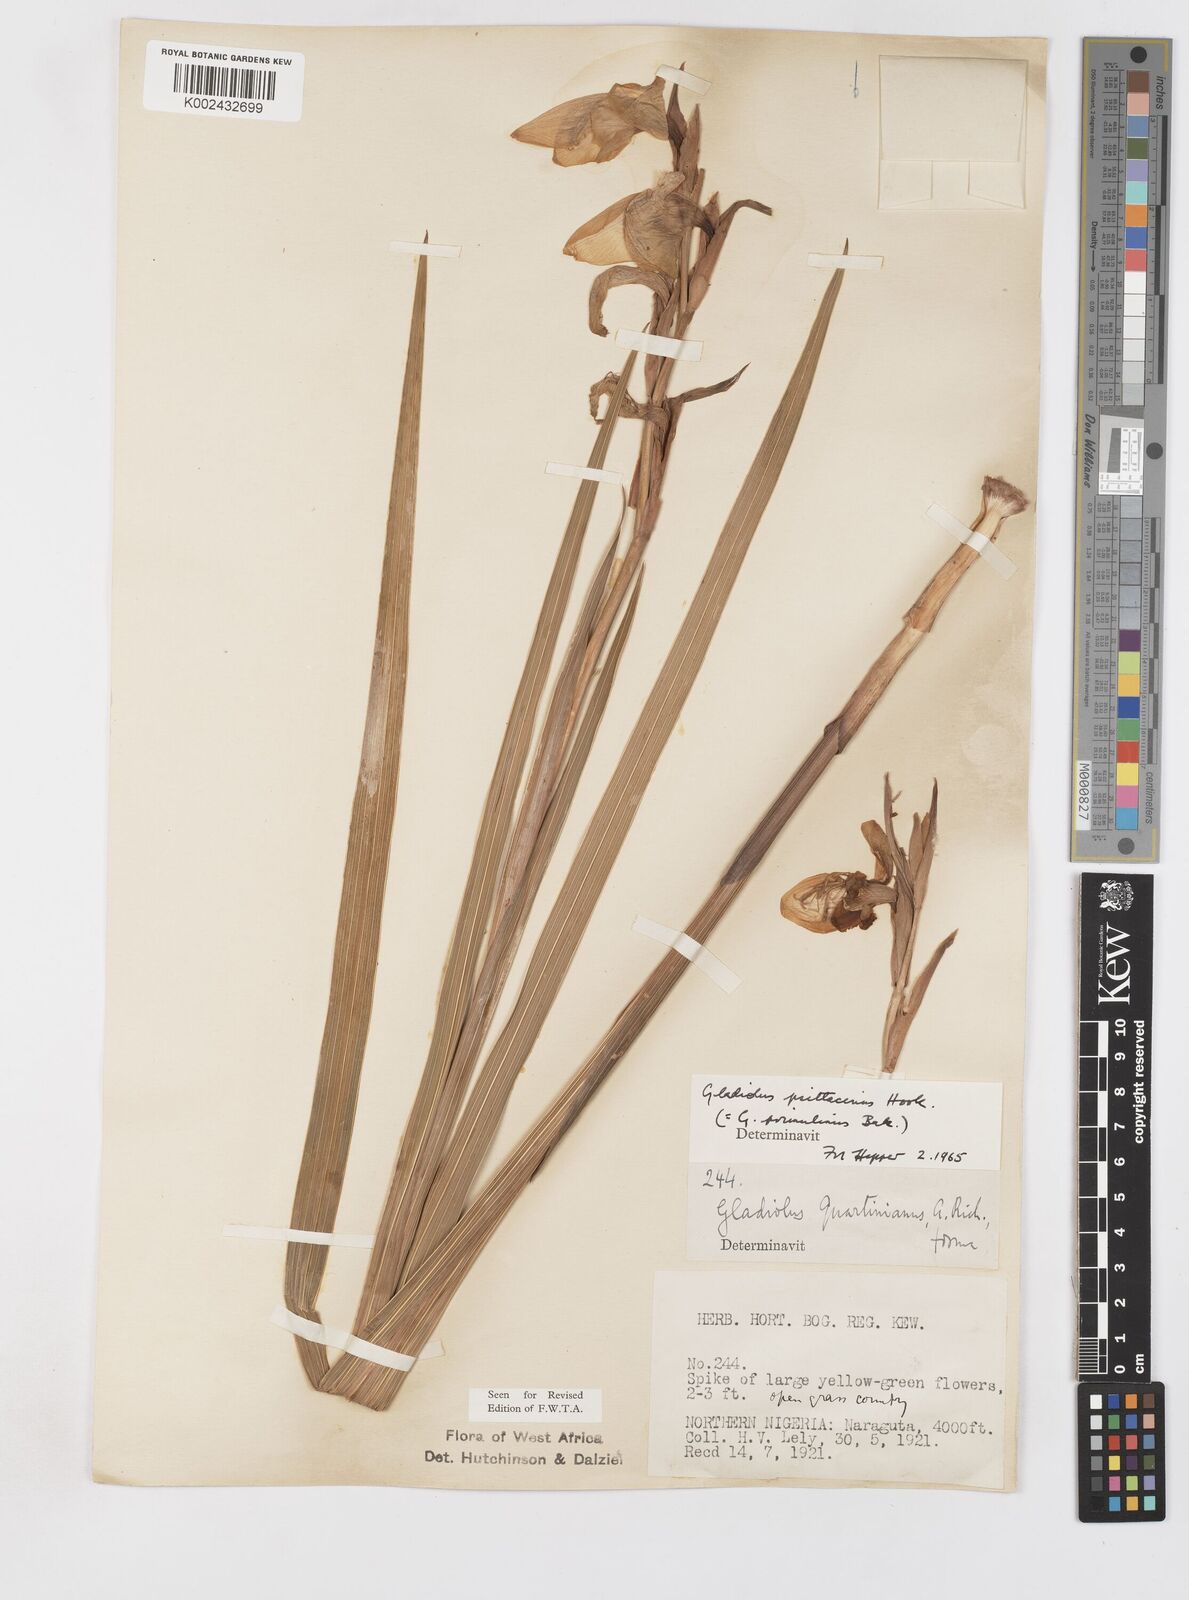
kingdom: Plantae
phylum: Tracheophyta
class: Liliopsida
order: Asparagales
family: Iridaceae
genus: Gladiolus
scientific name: Gladiolus dalenii
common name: Cornflag
